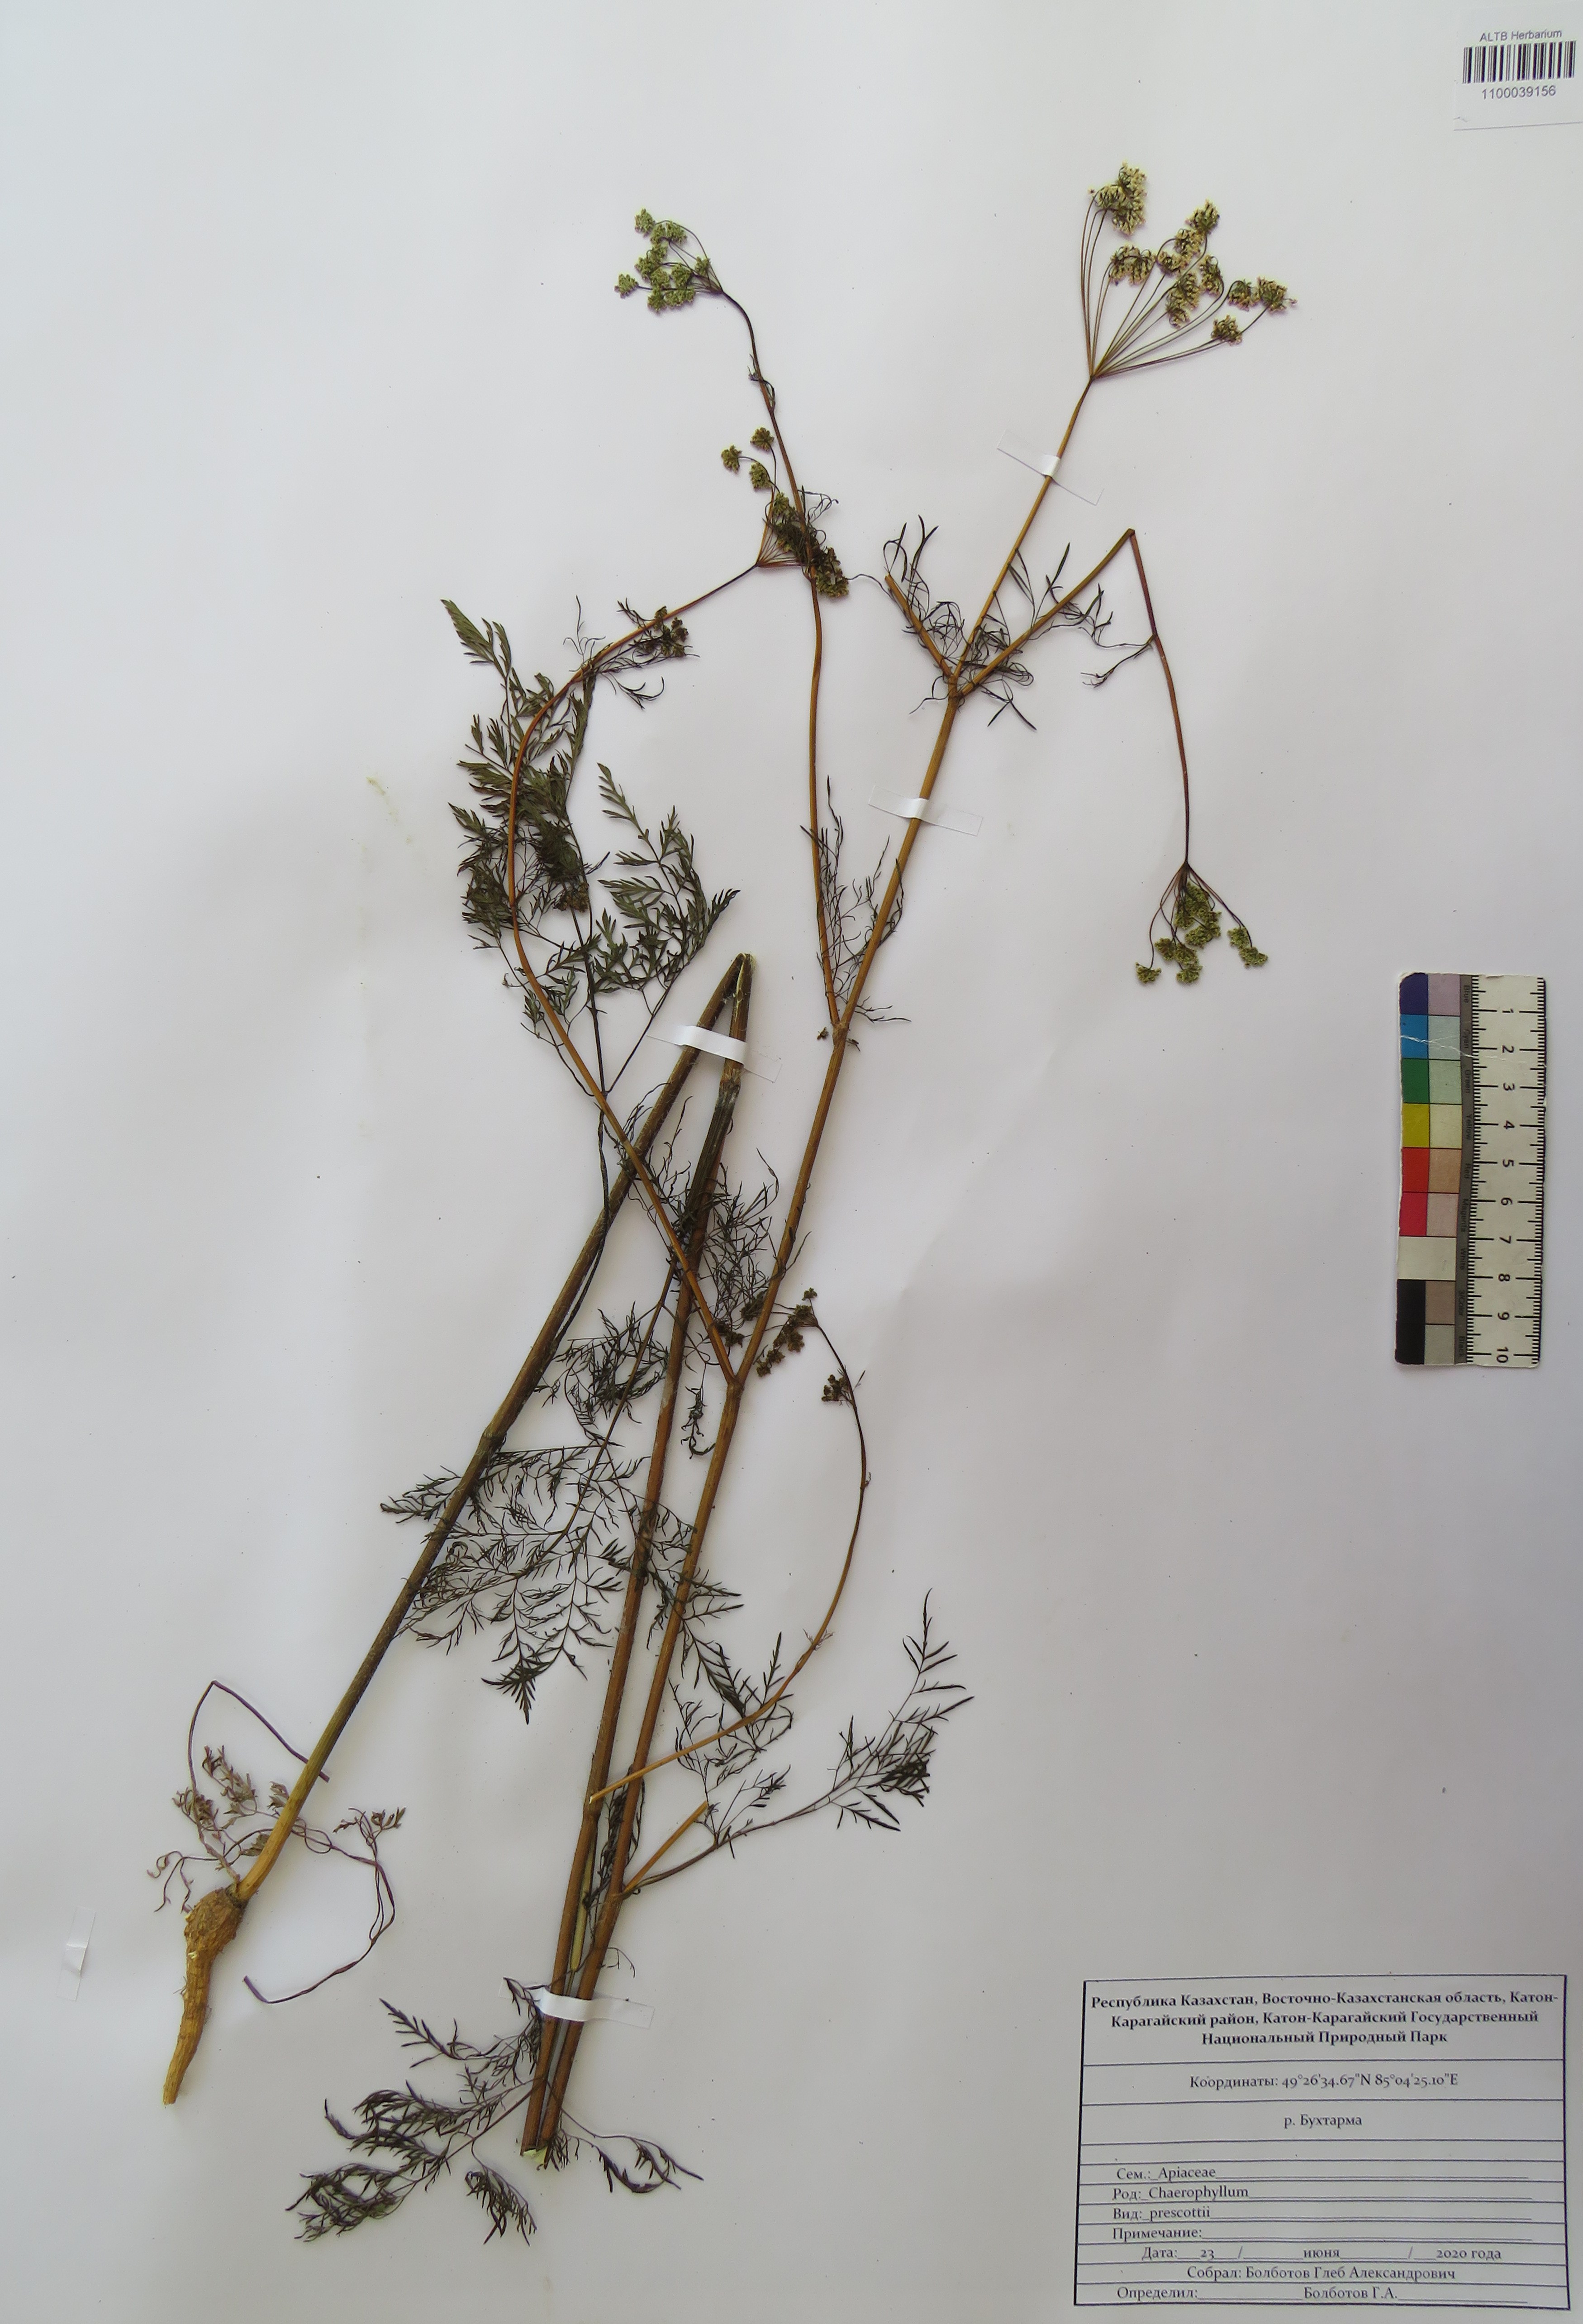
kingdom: Plantae
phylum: Tracheophyta
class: Magnoliopsida
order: Apiales
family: Apiaceae
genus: Chaerophyllum
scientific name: Chaerophyllum prescottii
